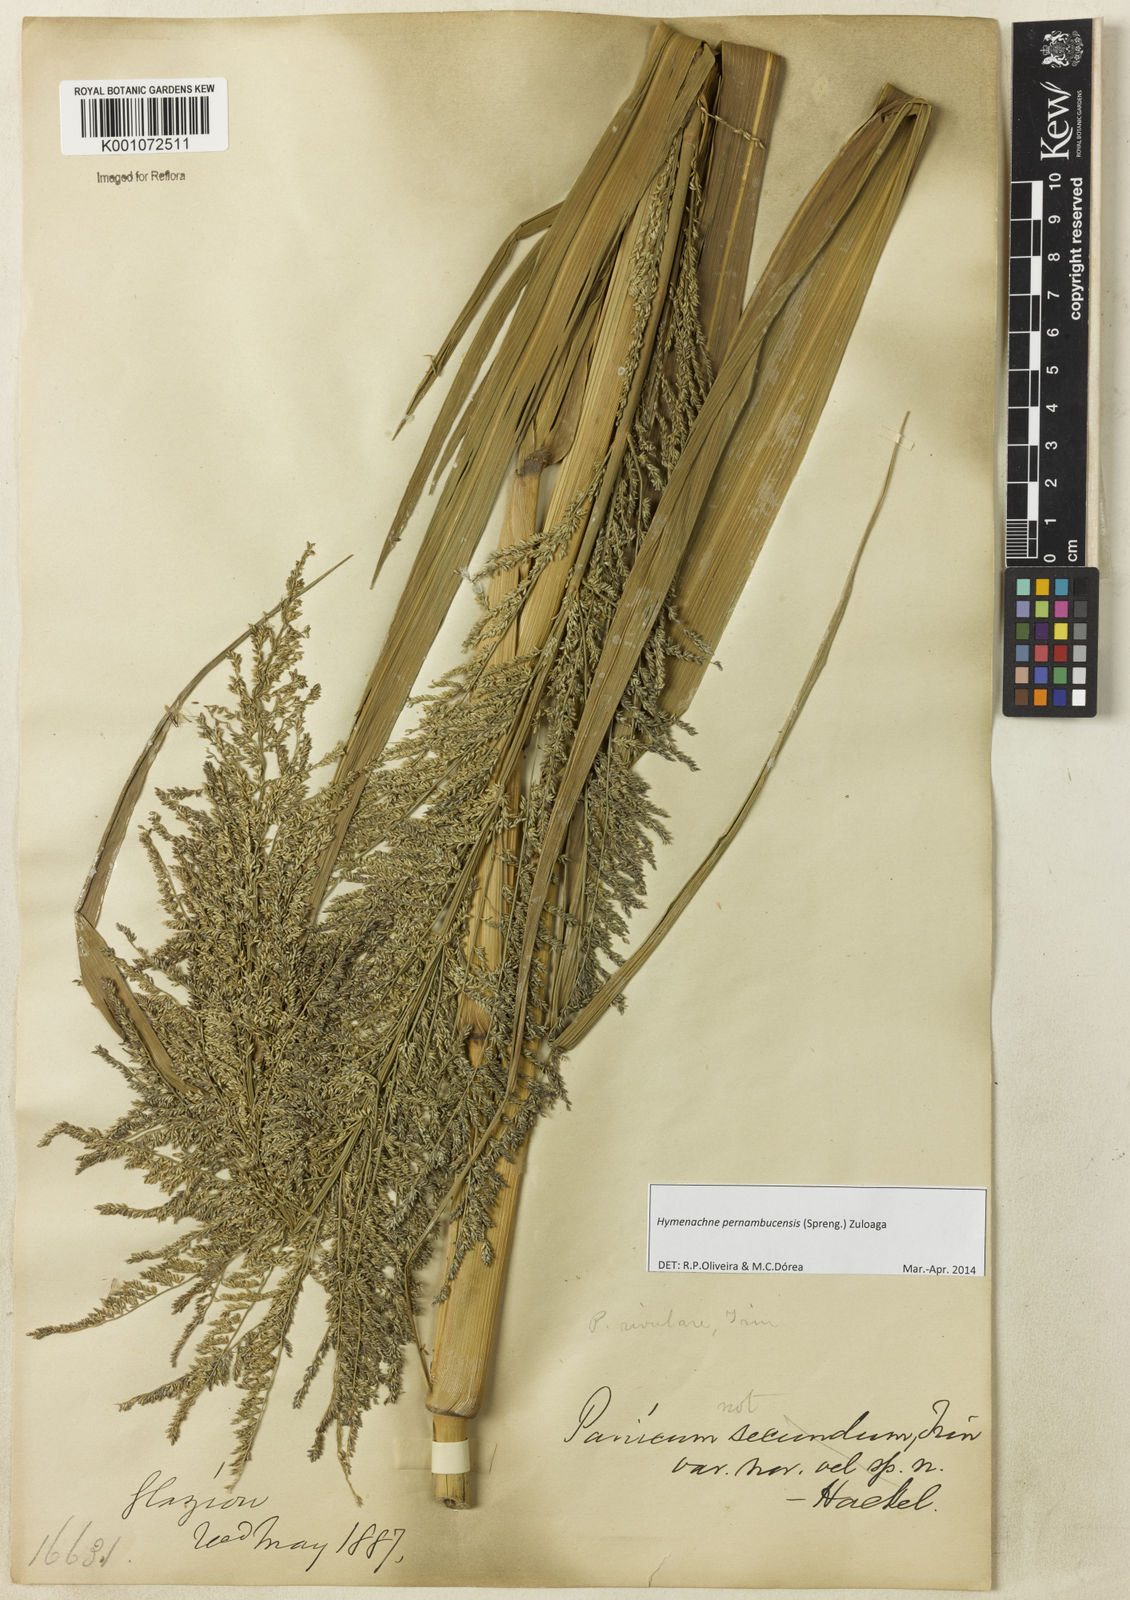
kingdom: Plantae
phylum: Tracheophyta
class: Liliopsida
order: Poales
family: Poaceae
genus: Hymenachne
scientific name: Hymenachne pernambucensis
